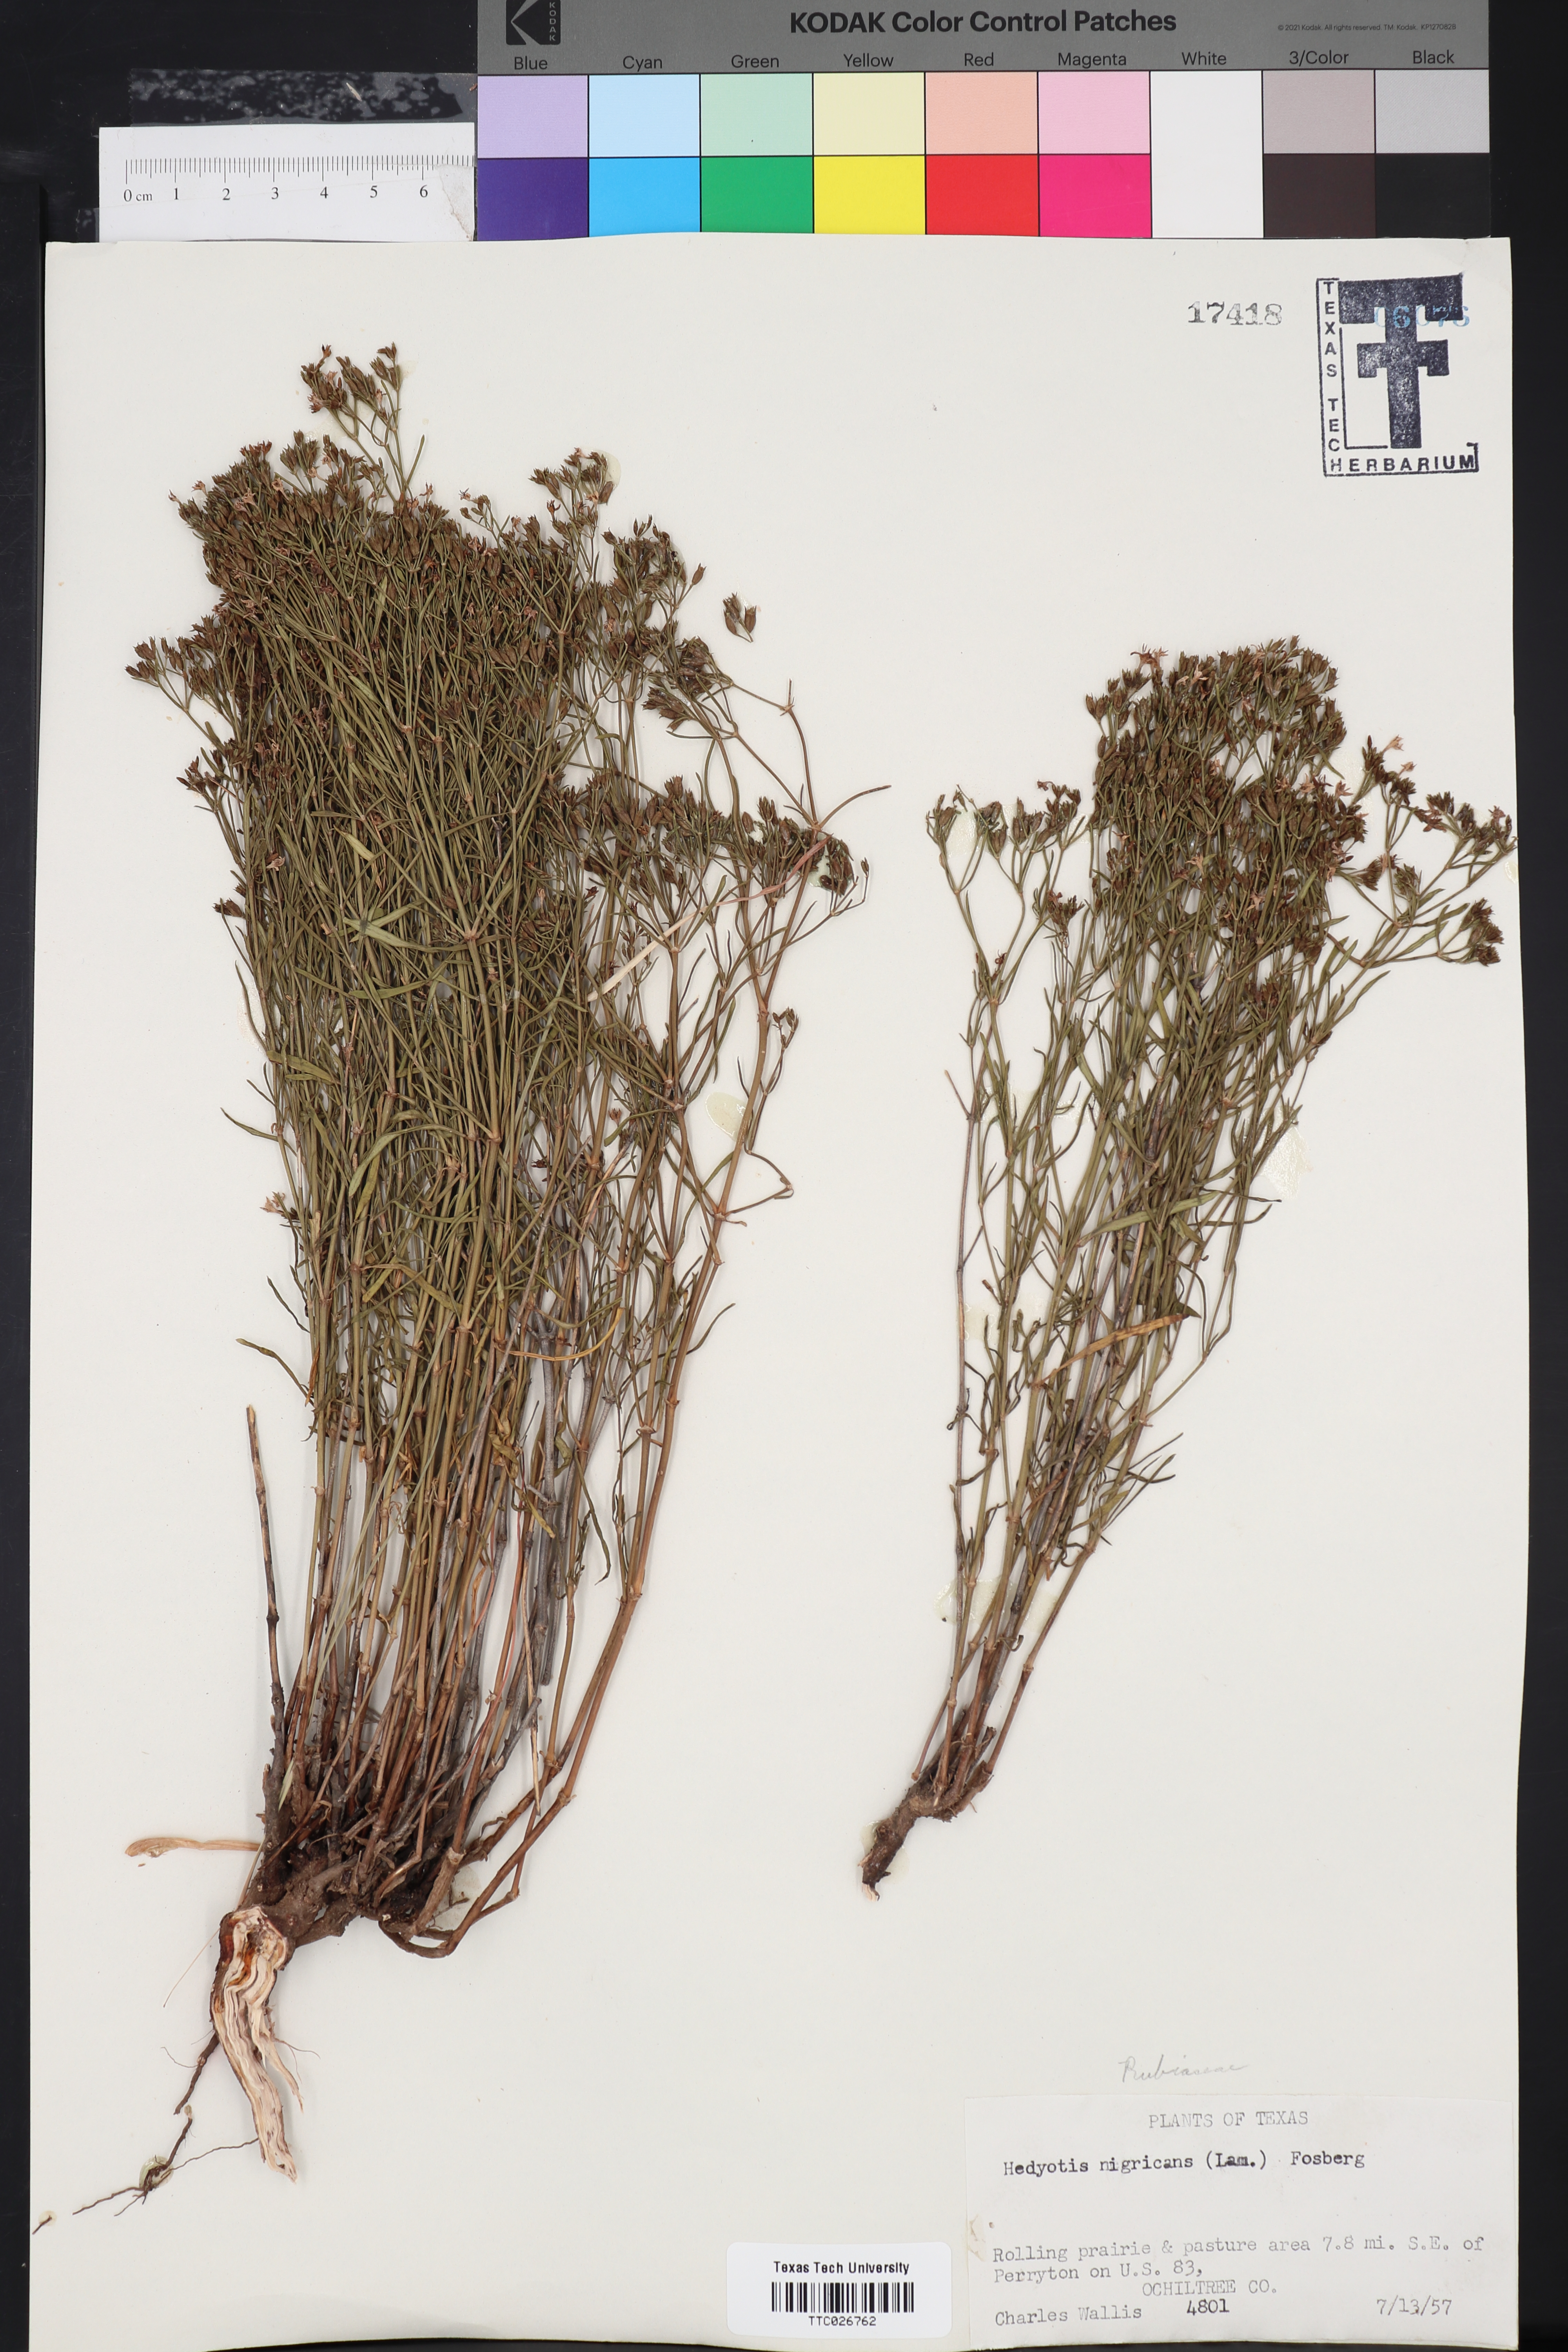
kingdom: Plantae
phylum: Tracheophyta
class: Magnoliopsida
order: Gentianales
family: Rubiaceae
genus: Stenaria
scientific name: Stenaria nigricans
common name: Diamondflowers
